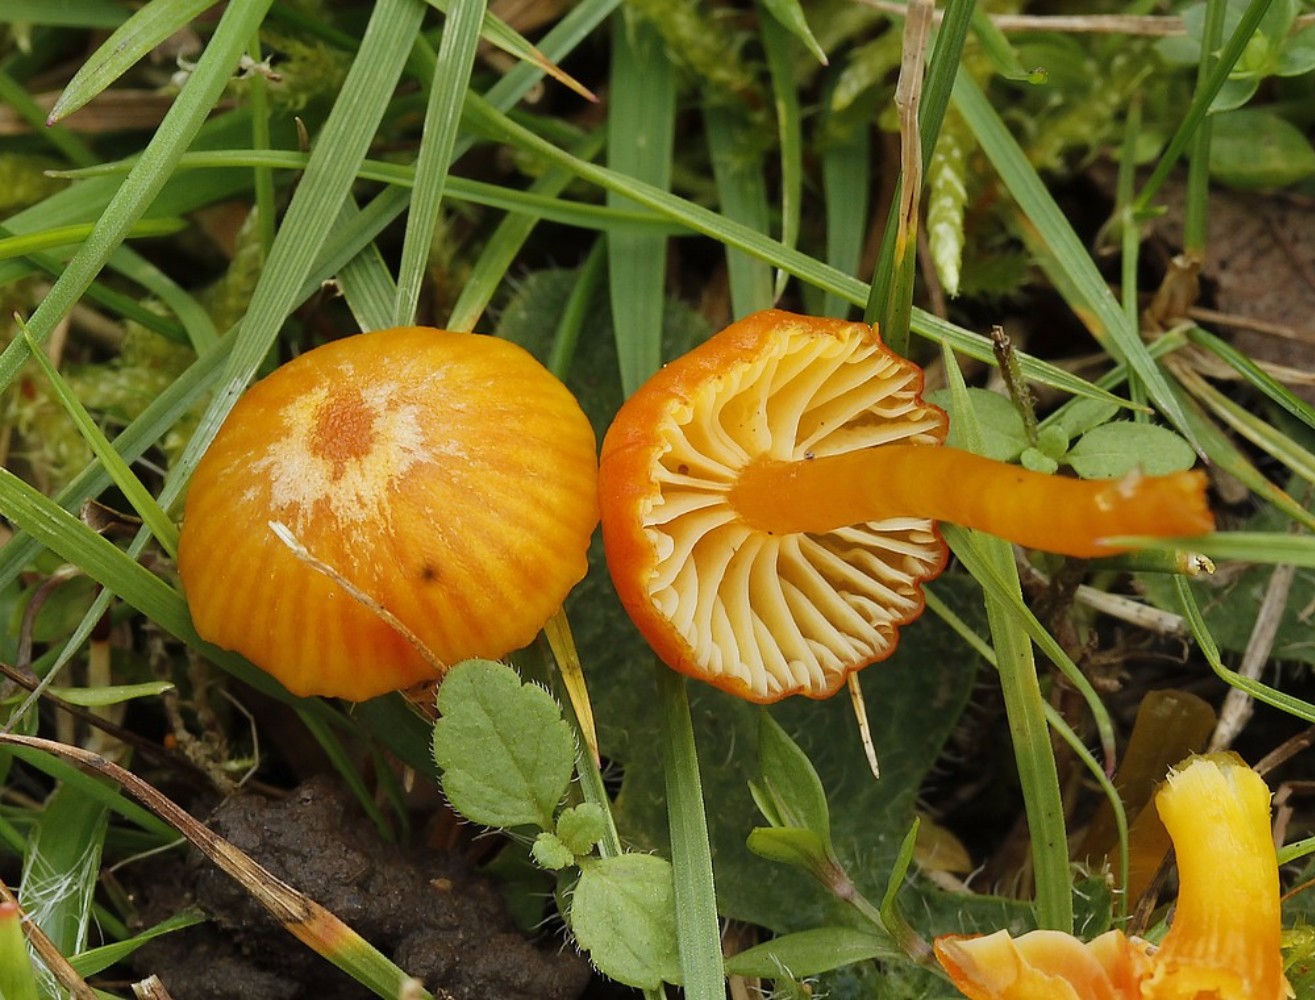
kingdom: Fungi
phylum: Basidiomycota
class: Agaricomycetes
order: Agaricales
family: Hygrophoraceae
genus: Hygrocybe
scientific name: Hygrocybe
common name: vokshat
